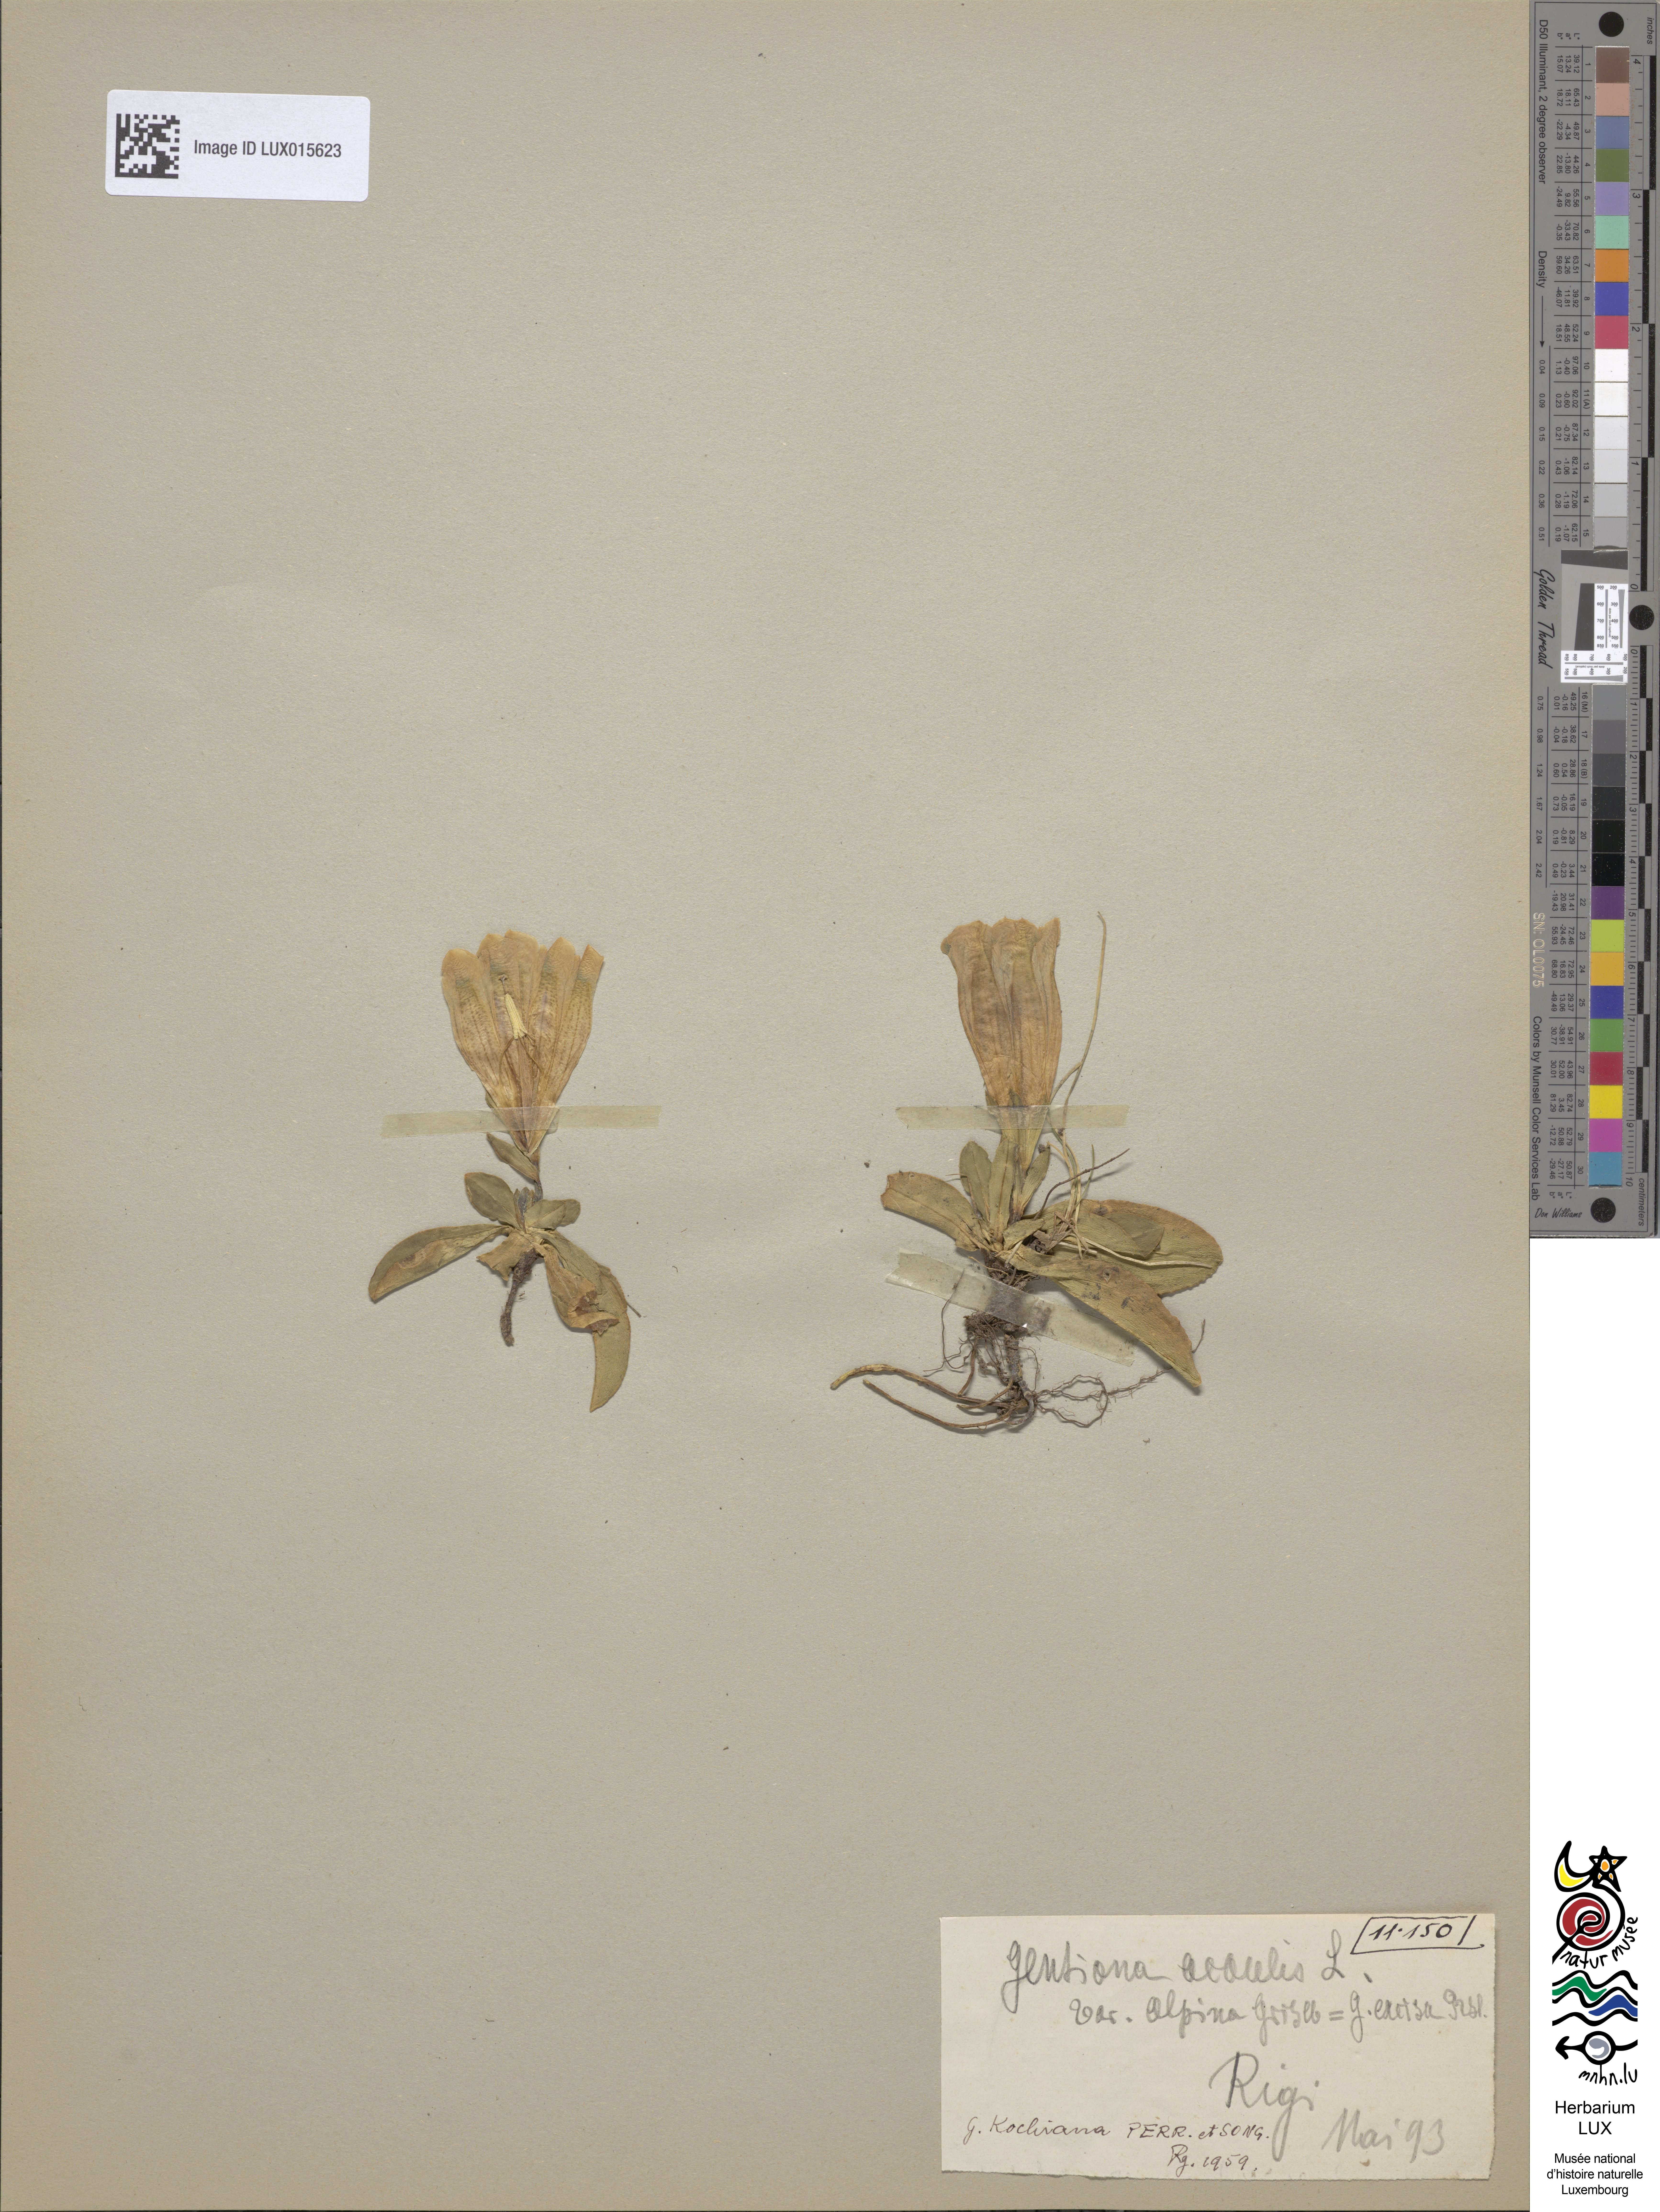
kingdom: Plantae
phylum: Tracheophyta
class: Magnoliopsida
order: Gentianales
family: Gentianaceae
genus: Gentiana
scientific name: Gentiana acaulis
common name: Trumpet gentian
